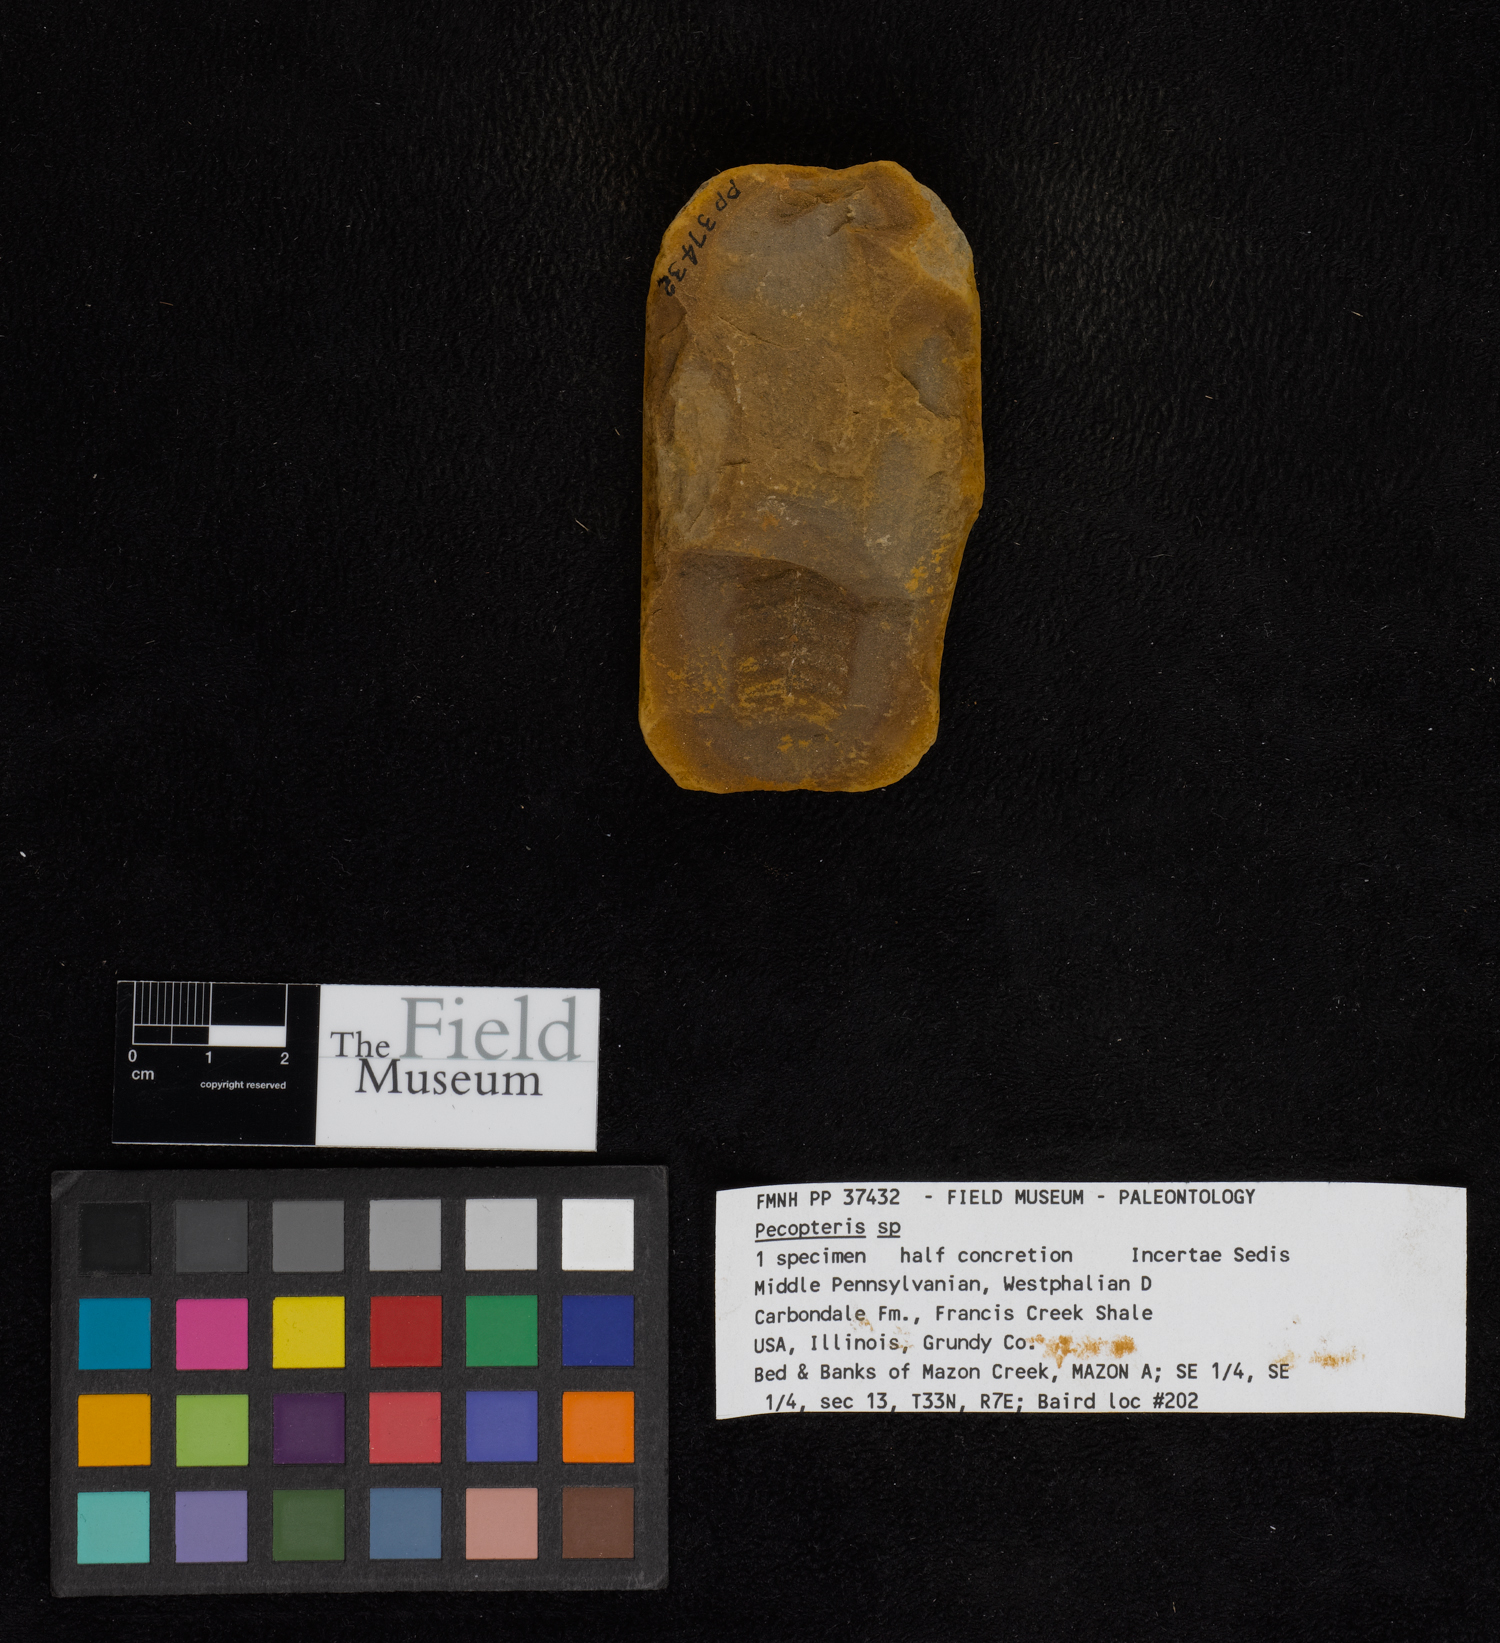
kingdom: Plantae
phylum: Tracheophyta
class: Polypodiopsida
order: Marattiales
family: Asterothecaceae
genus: Pecopteris
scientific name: Pecopteris
